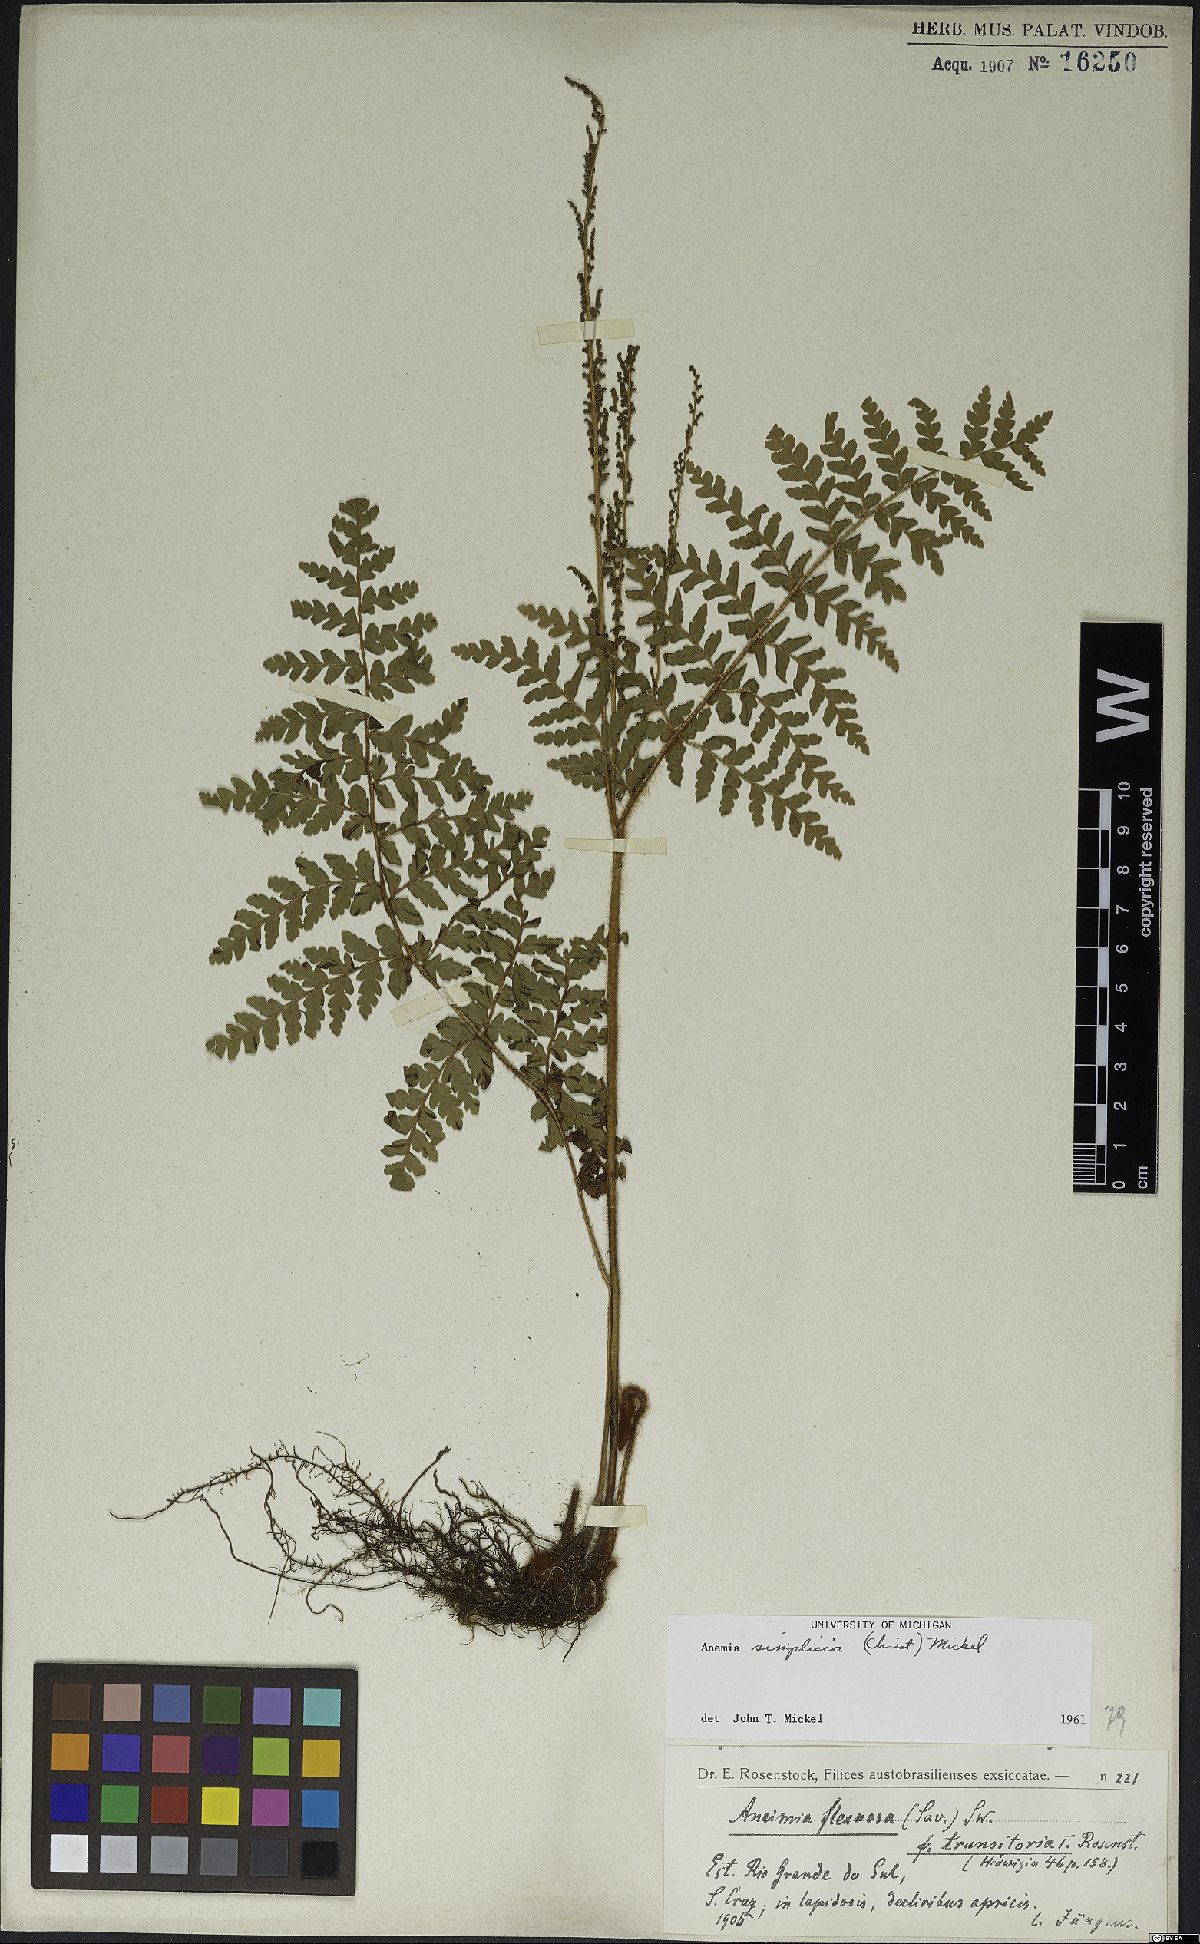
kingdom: Plantae
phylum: Tracheophyta
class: Polypodiopsida
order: Schizaeales
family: Anemiaceae
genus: Anemia
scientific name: Anemia simplicior
